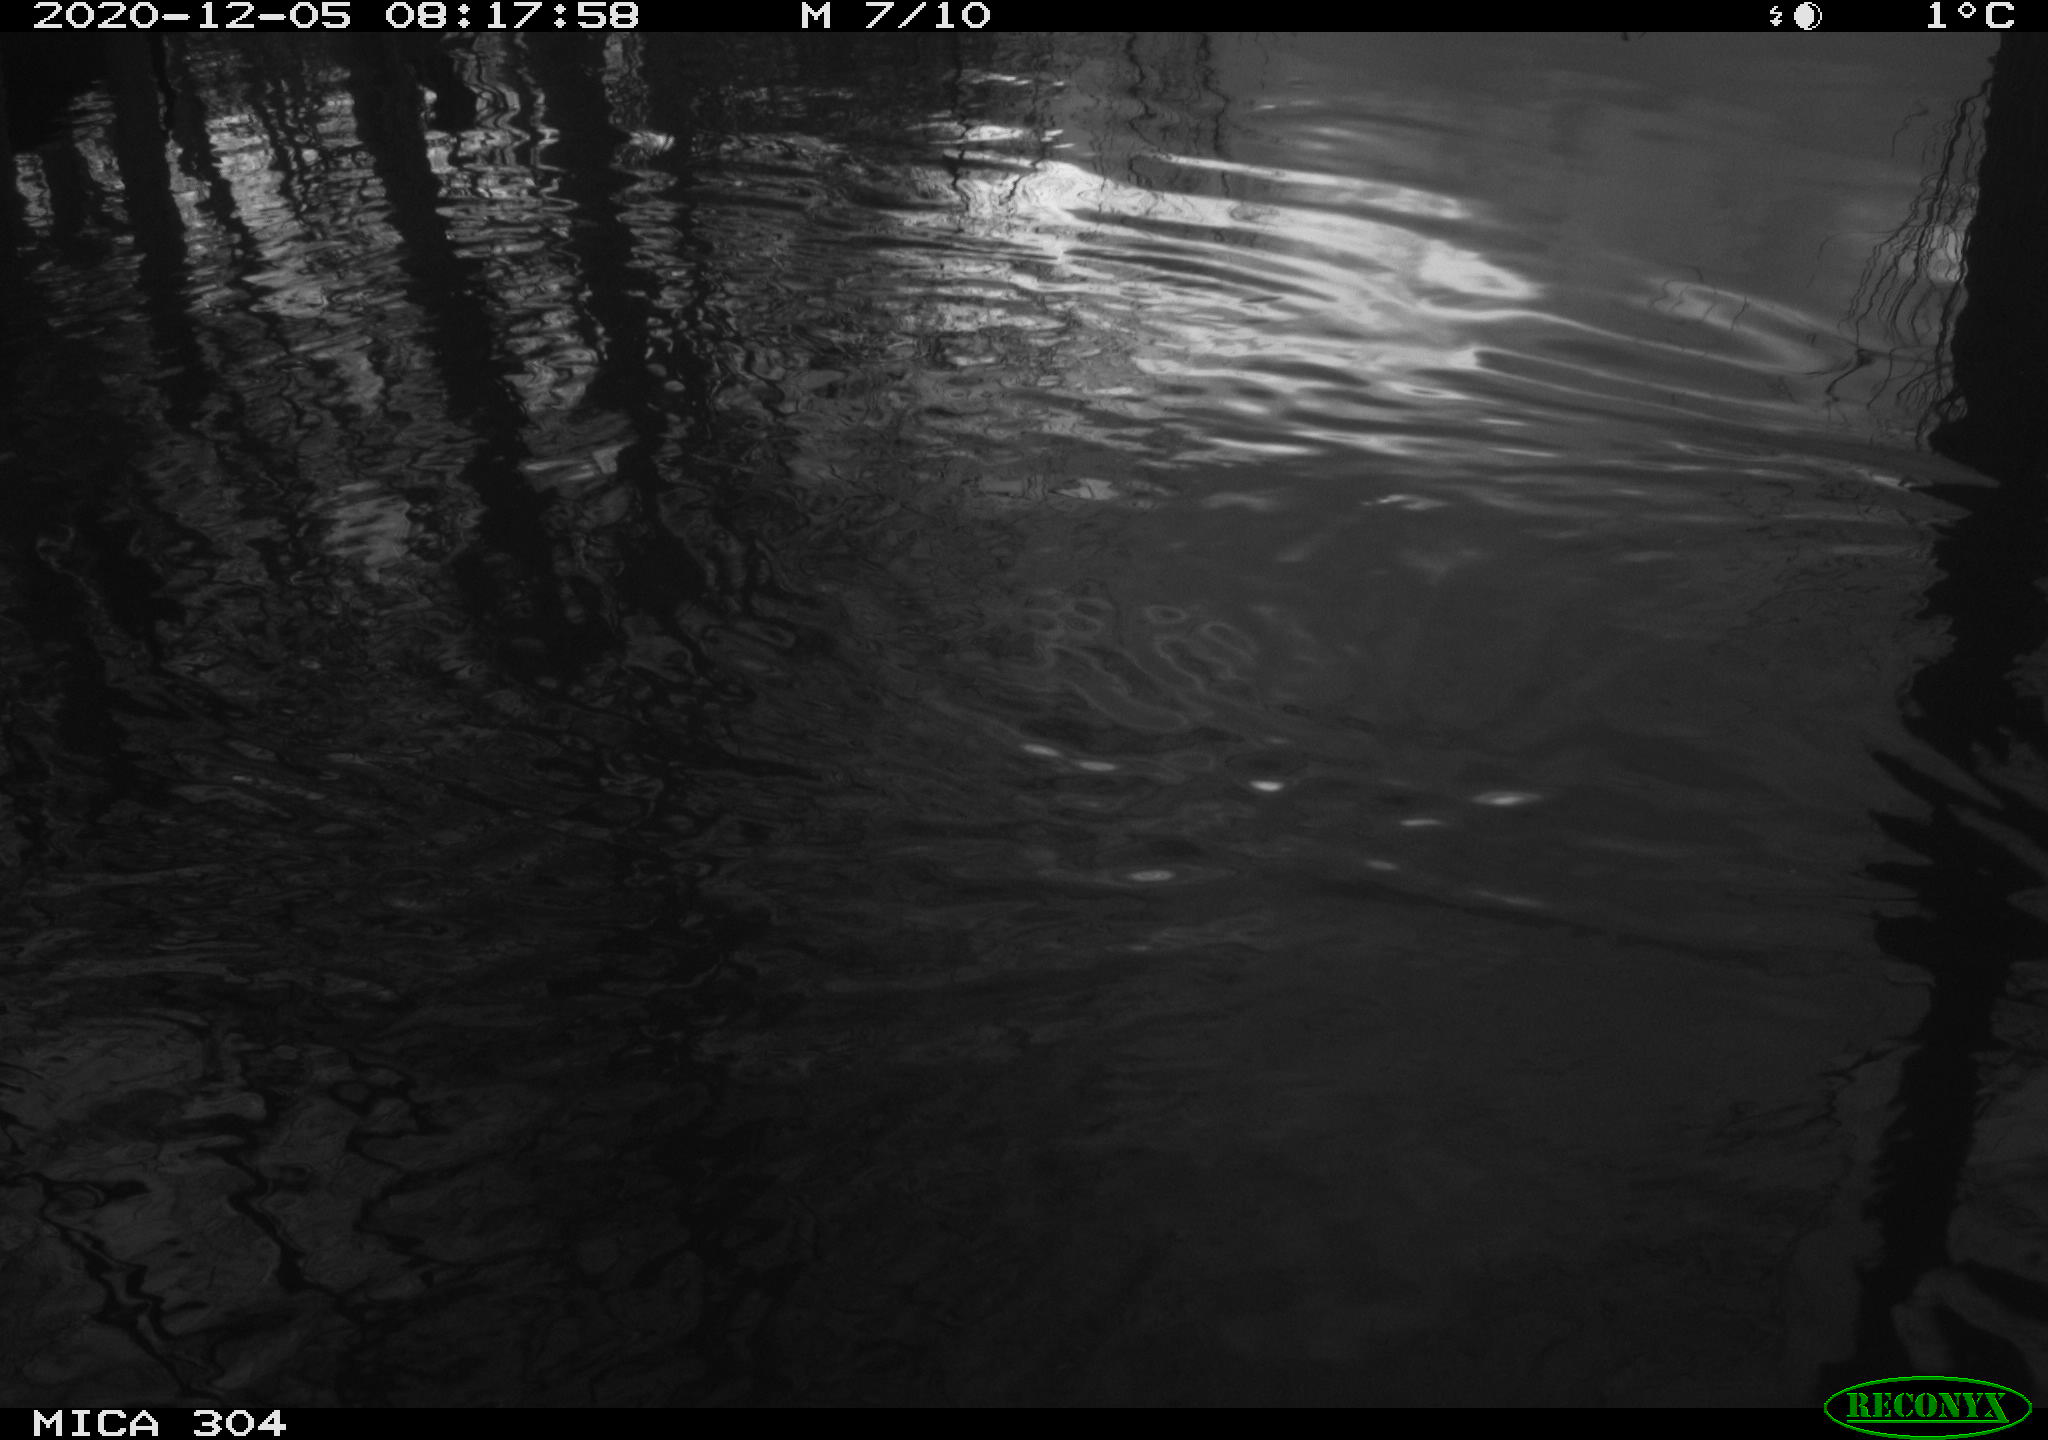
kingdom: Animalia
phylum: Chordata
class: Aves
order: Gruiformes
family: Rallidae
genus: Gallinula
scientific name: Gallinula chloropus
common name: Common moorhen
